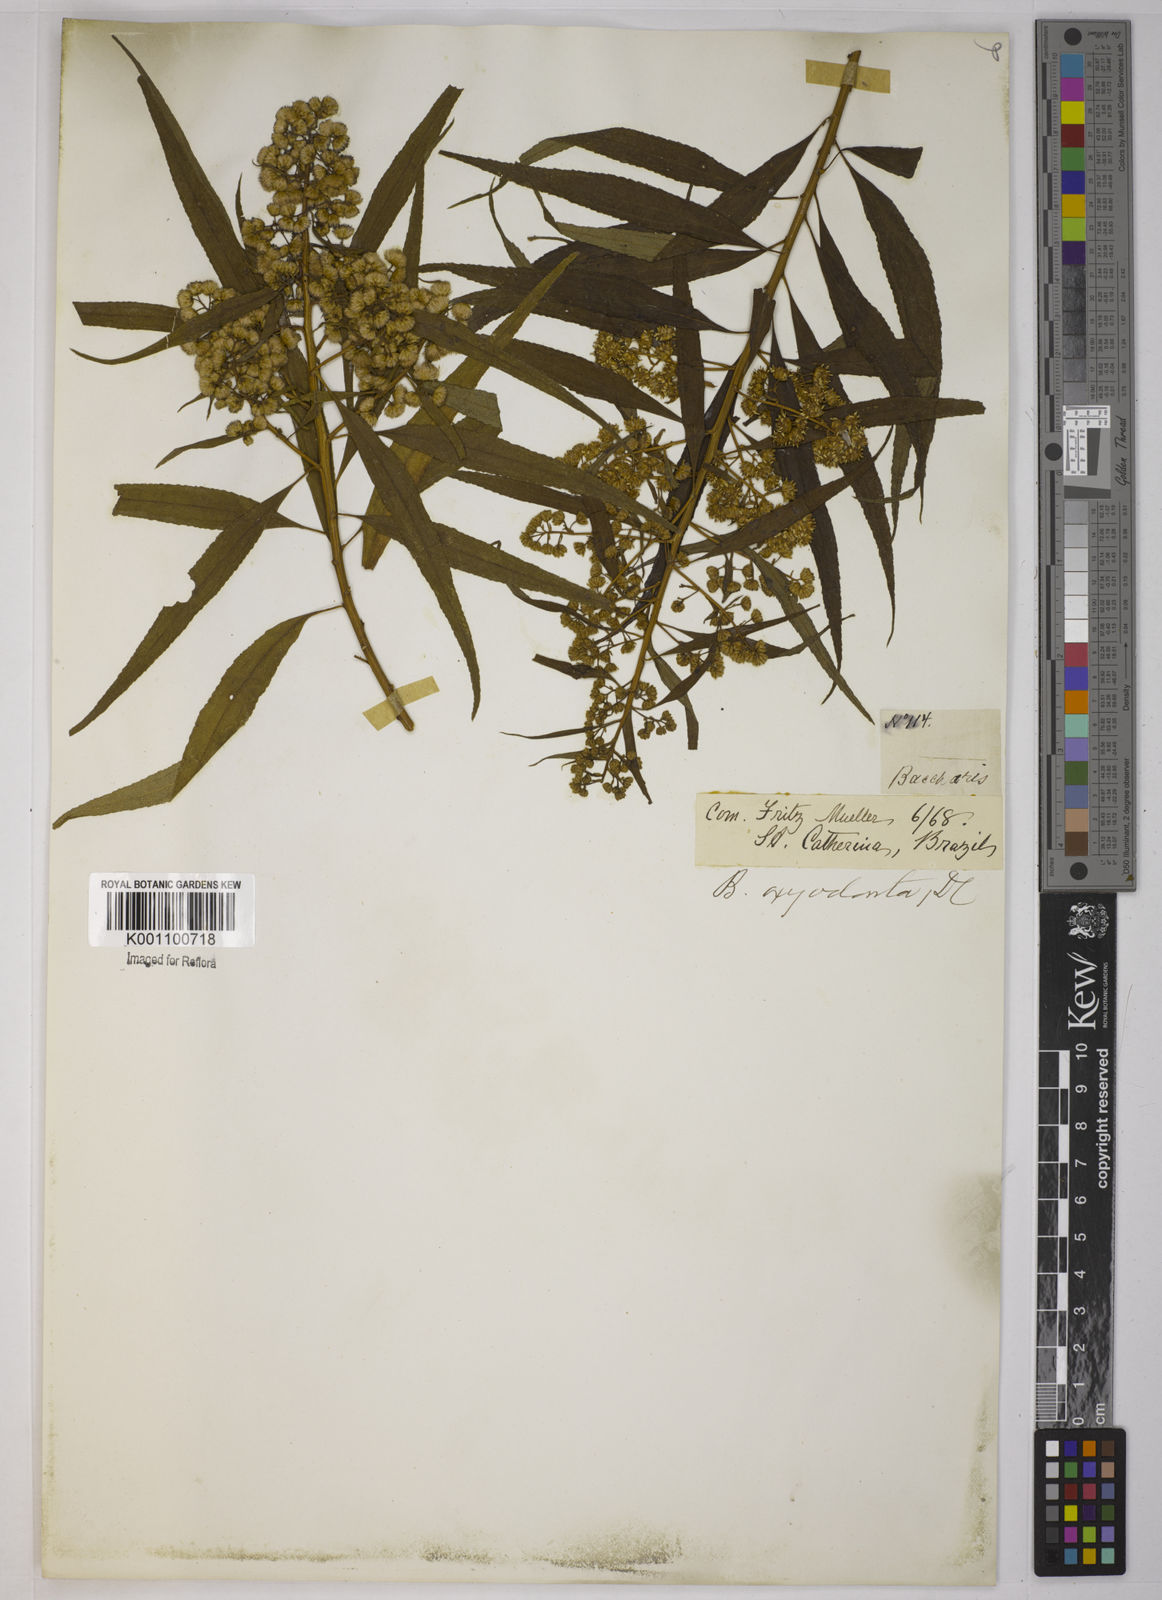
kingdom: Plantae
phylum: Tracheophyta
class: Magnoliopsida
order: Asterales
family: Asteraceae
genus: Baccharis
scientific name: Baccharis oxyodonta
